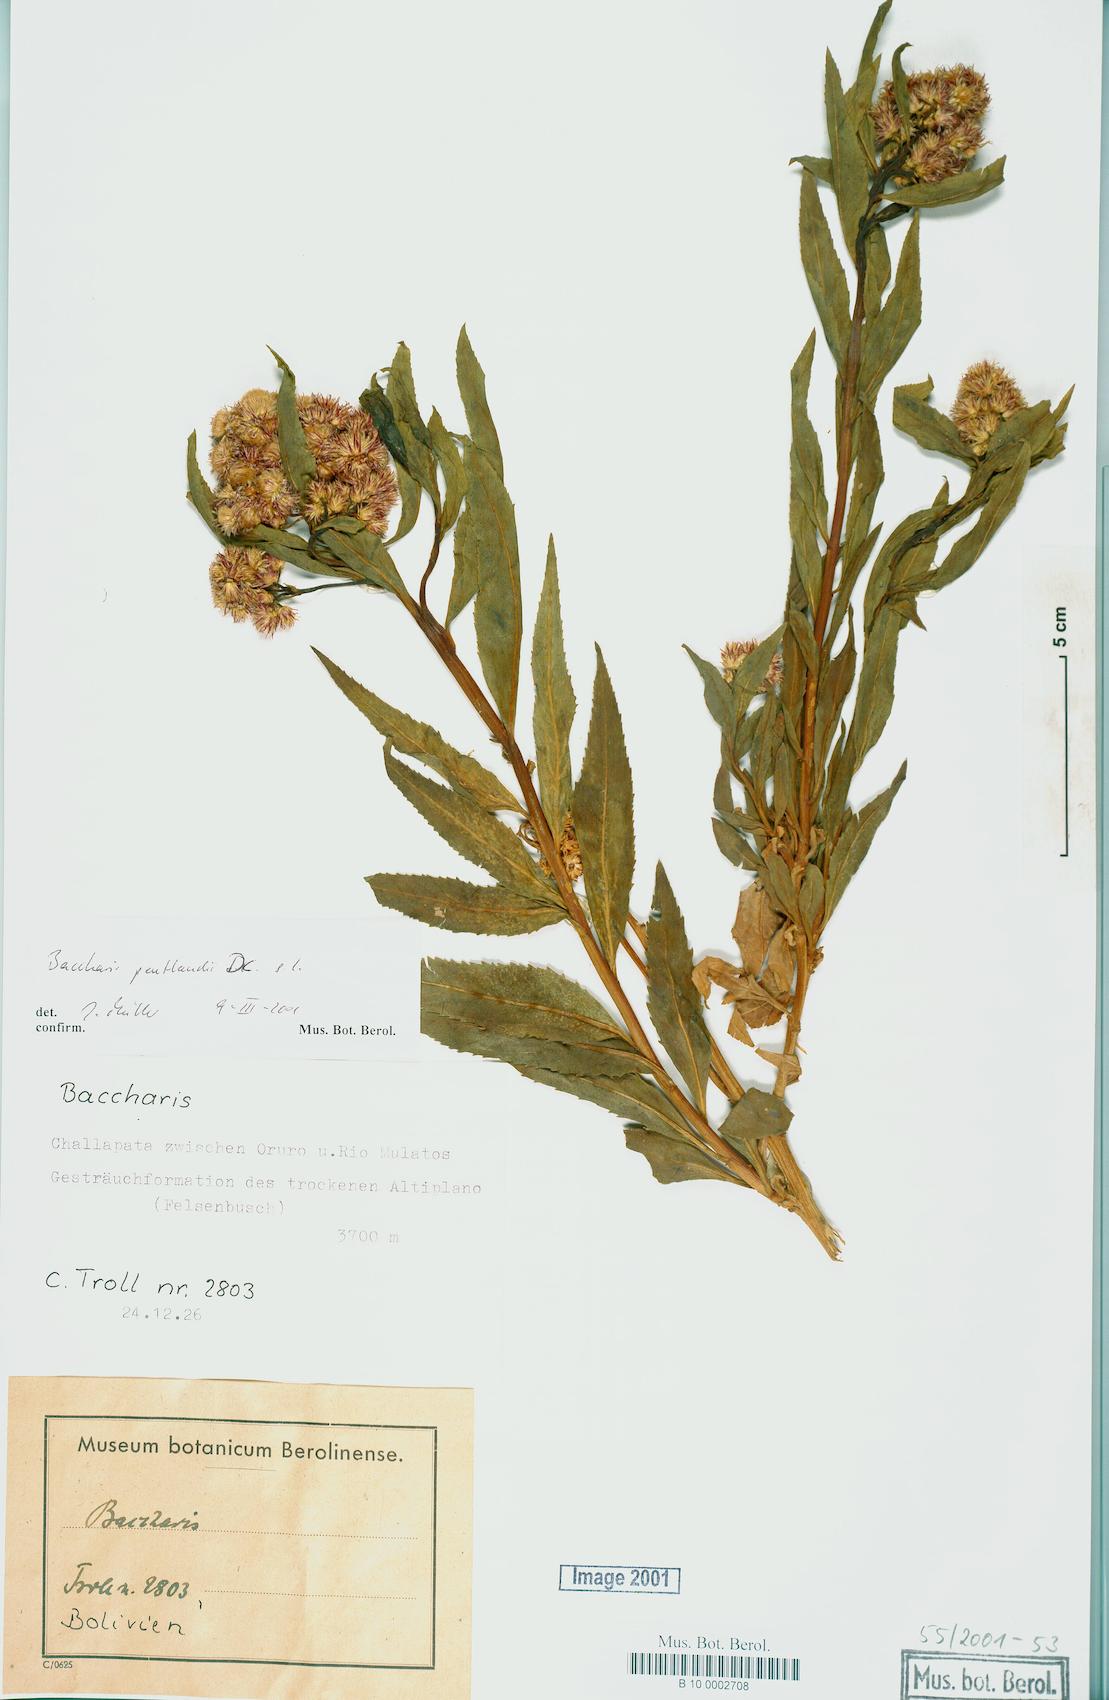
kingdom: Plantae
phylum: Tracheophyta
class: Magnoliopsida
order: Asterales
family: Asteraceae
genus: Baccharis
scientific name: Baccharis pentlandii
